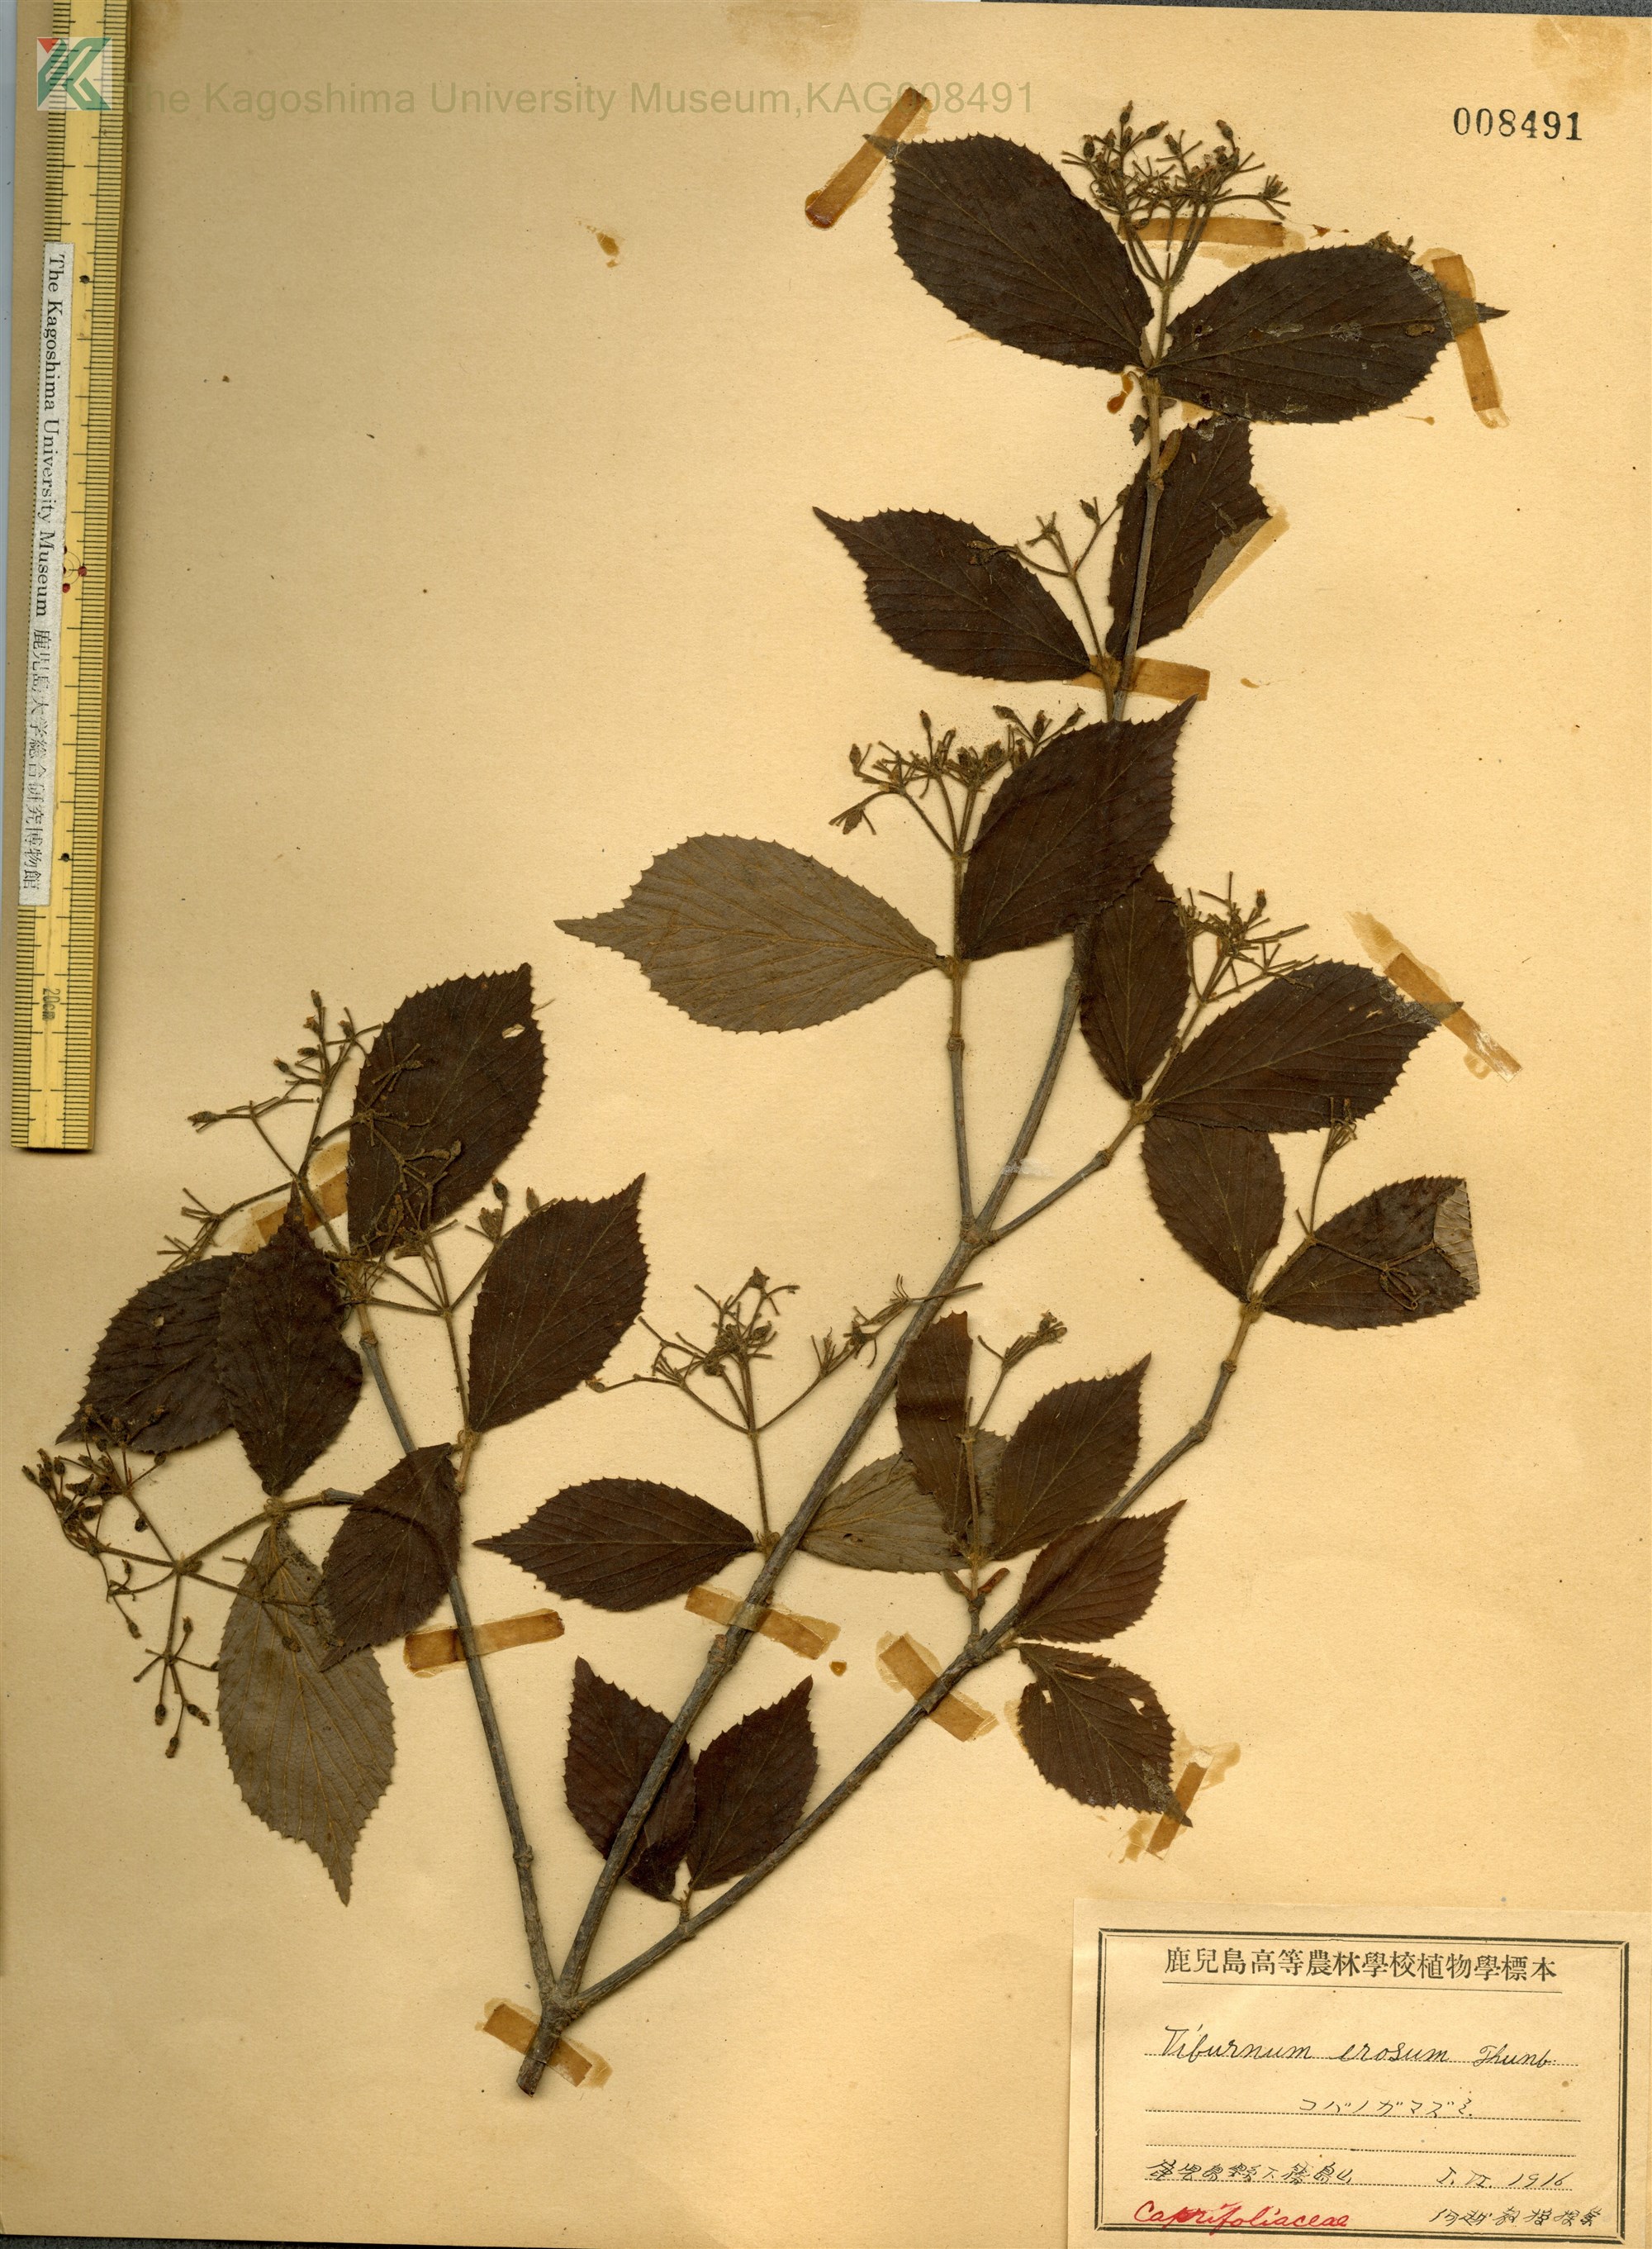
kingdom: Plantae
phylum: Tracheophyta
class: Magnoliopsida
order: Dipsacales
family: Viburnaceae
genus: Viburnum
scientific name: Viburnum erosum
